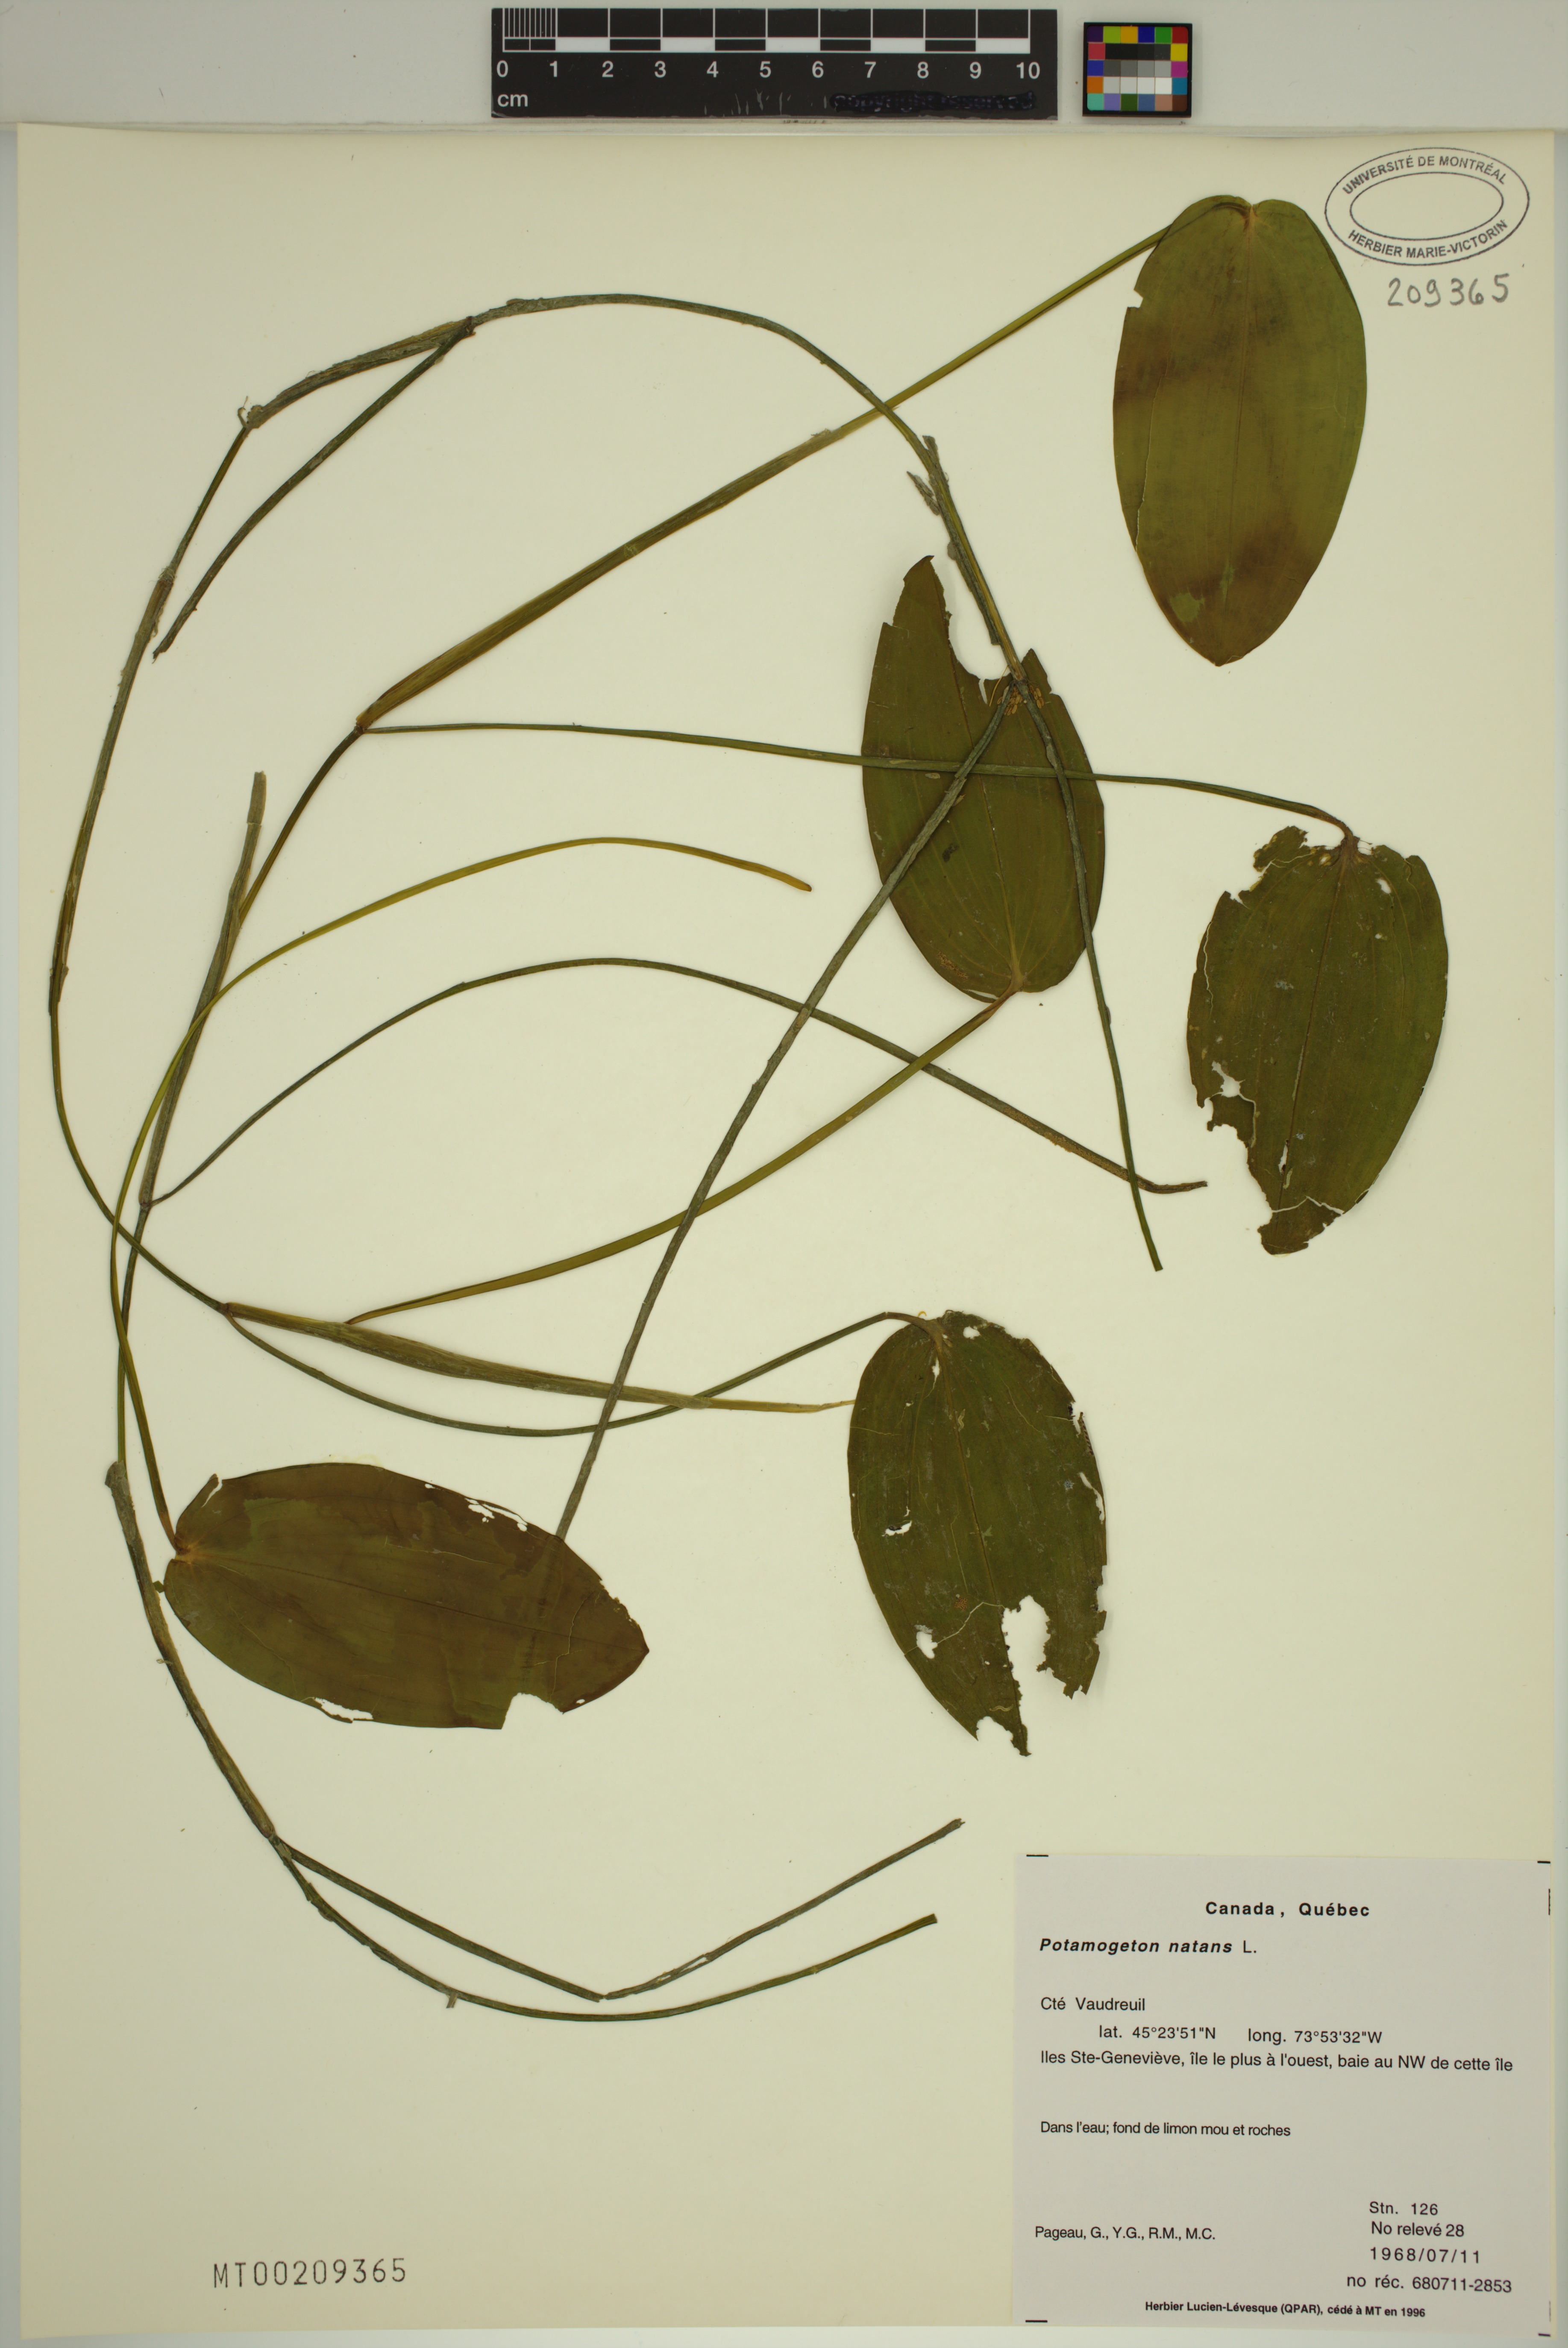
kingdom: Plantae
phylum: Tracheophyta
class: Liliopsida
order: Alismatales
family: Potamogetonaceae
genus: Potamogeton
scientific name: Potamogeton natans
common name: Broad-leaved pondweed
